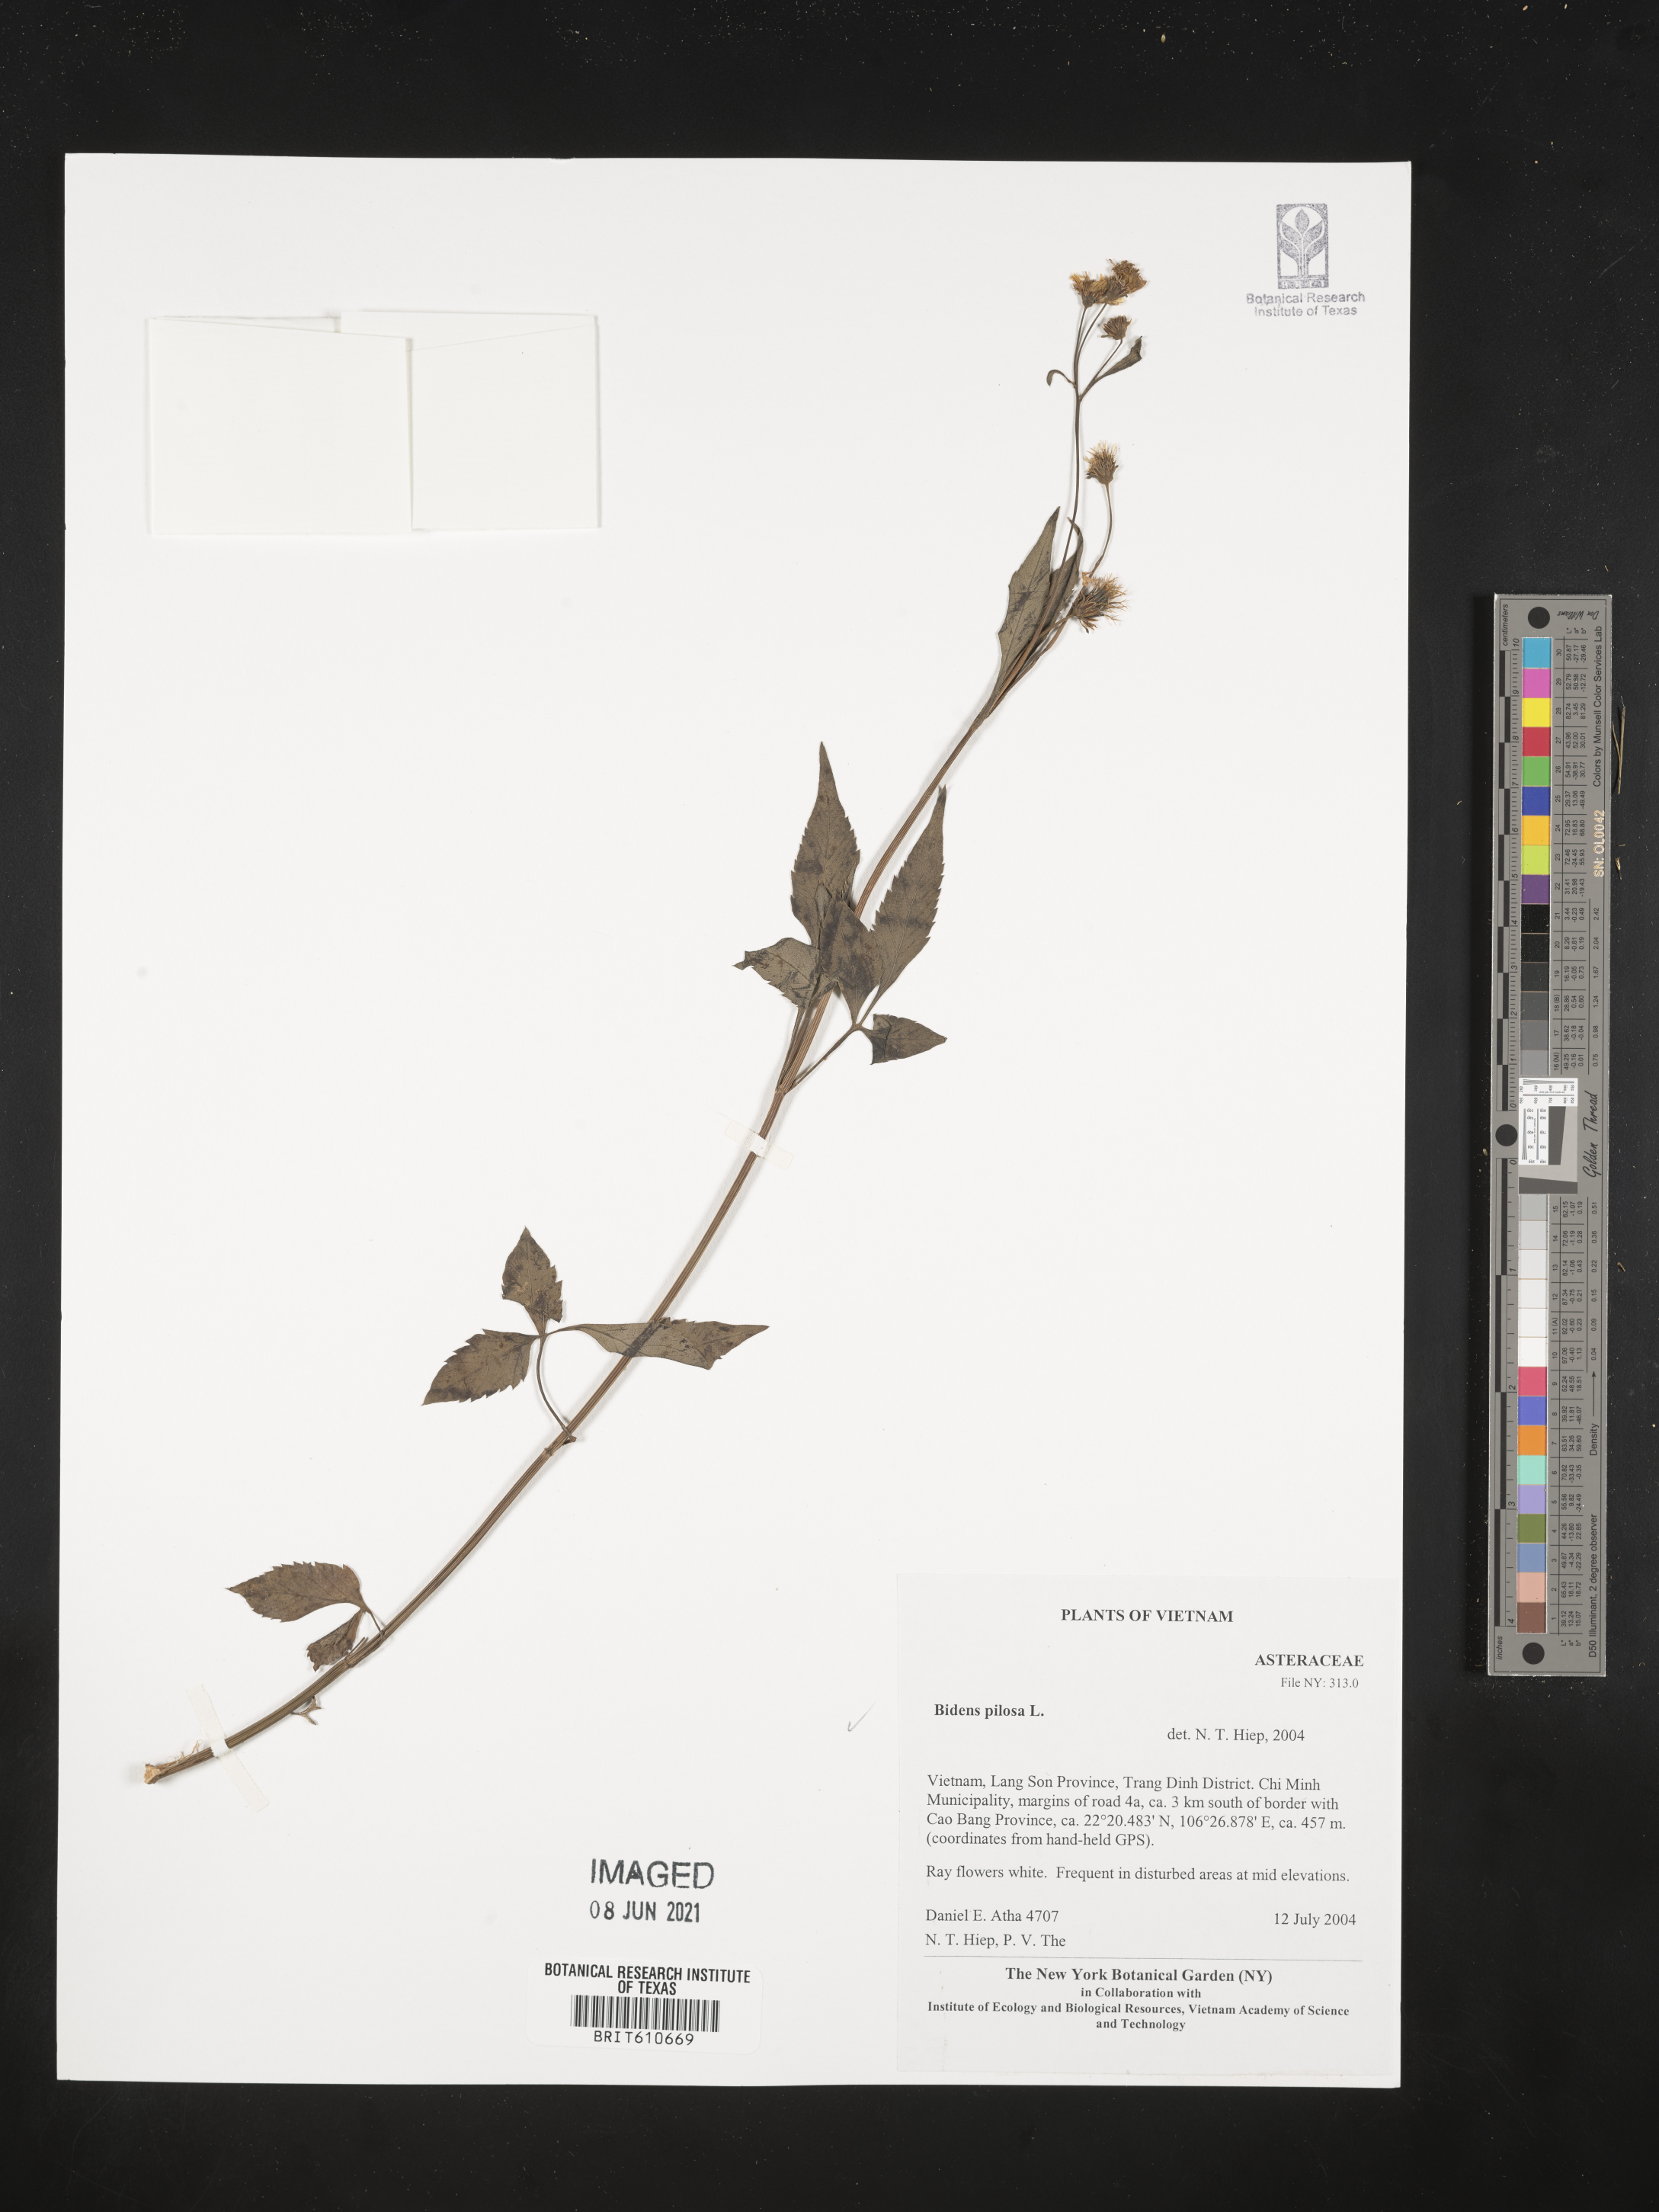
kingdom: Plantae
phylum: Tracheophyta
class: Magnoliopsida
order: Asterales
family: Asteraceae
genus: Bidens
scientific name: Bidens pilosa
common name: Black-jack
